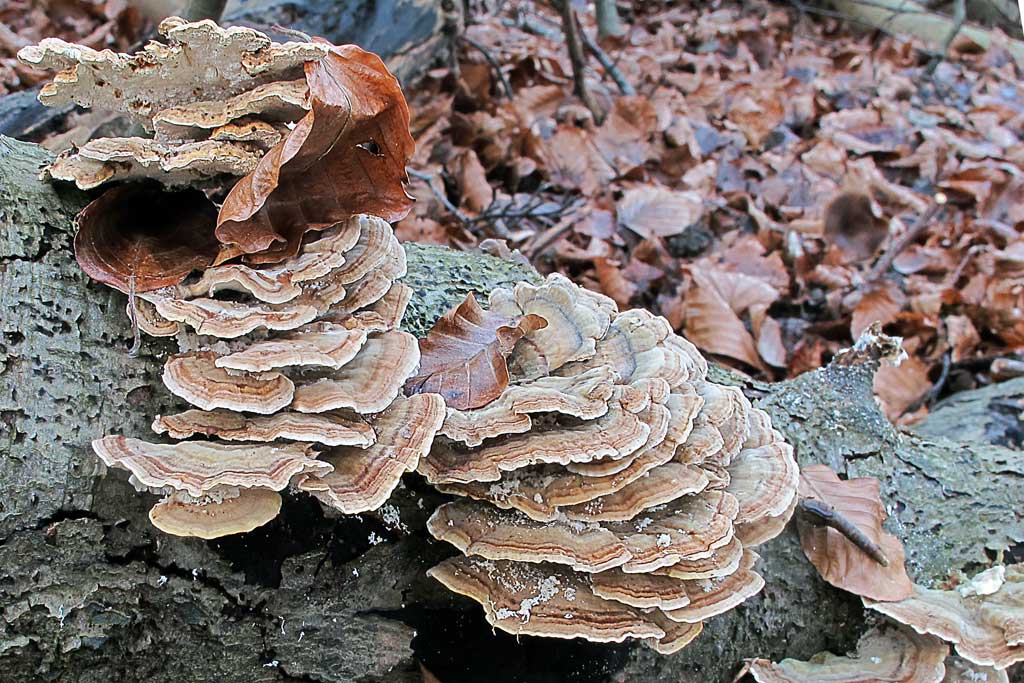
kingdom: Fungi
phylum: Basidiomycota
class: Agaricomycetes
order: Polyporales
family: Polyporaceae
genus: Trametes
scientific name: Trametes ochracea
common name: bæltet læderporesvamp
